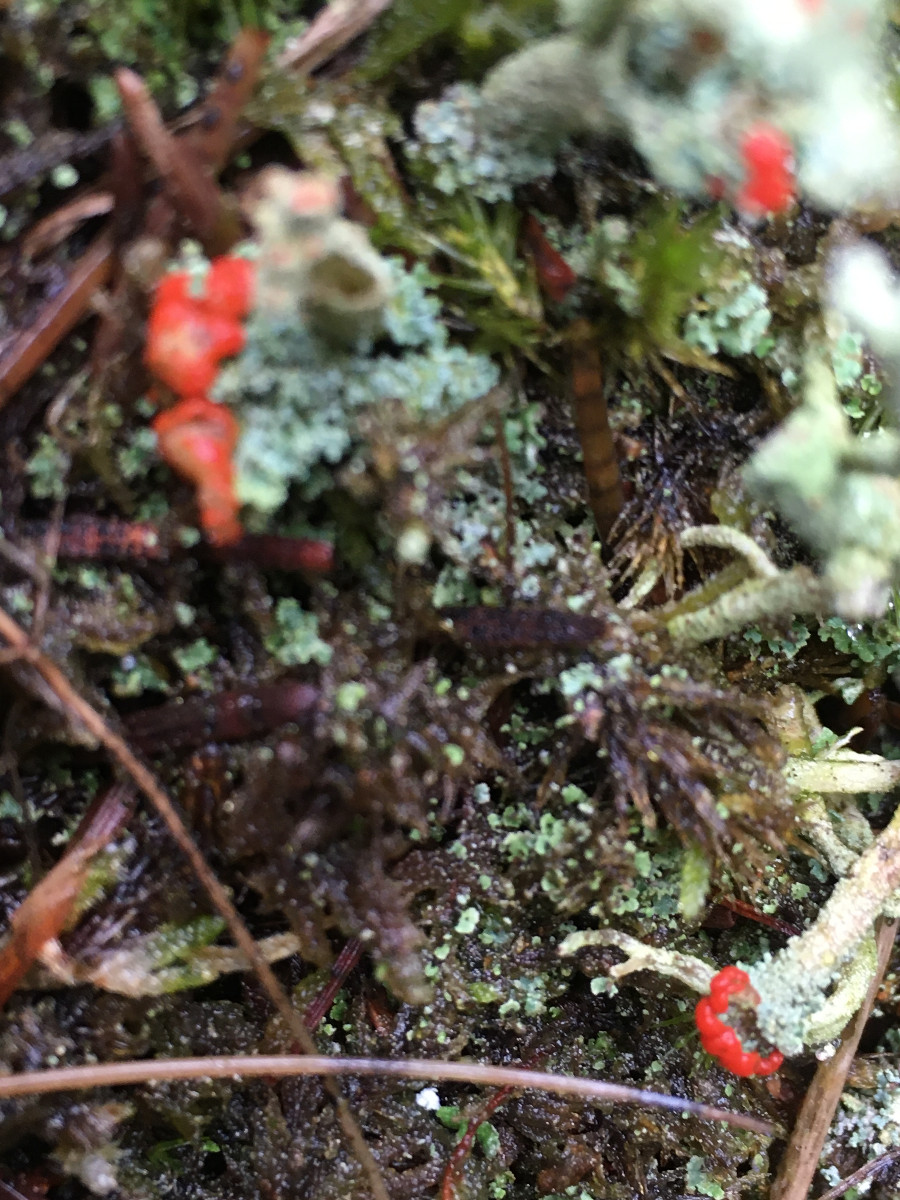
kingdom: Fungi
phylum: Ascomycota
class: Lecanoromycetes
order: Lecanorales
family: Cladoniaceae
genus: Cladonia
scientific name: Cladonia floerkeana
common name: lakrød bægerlav
